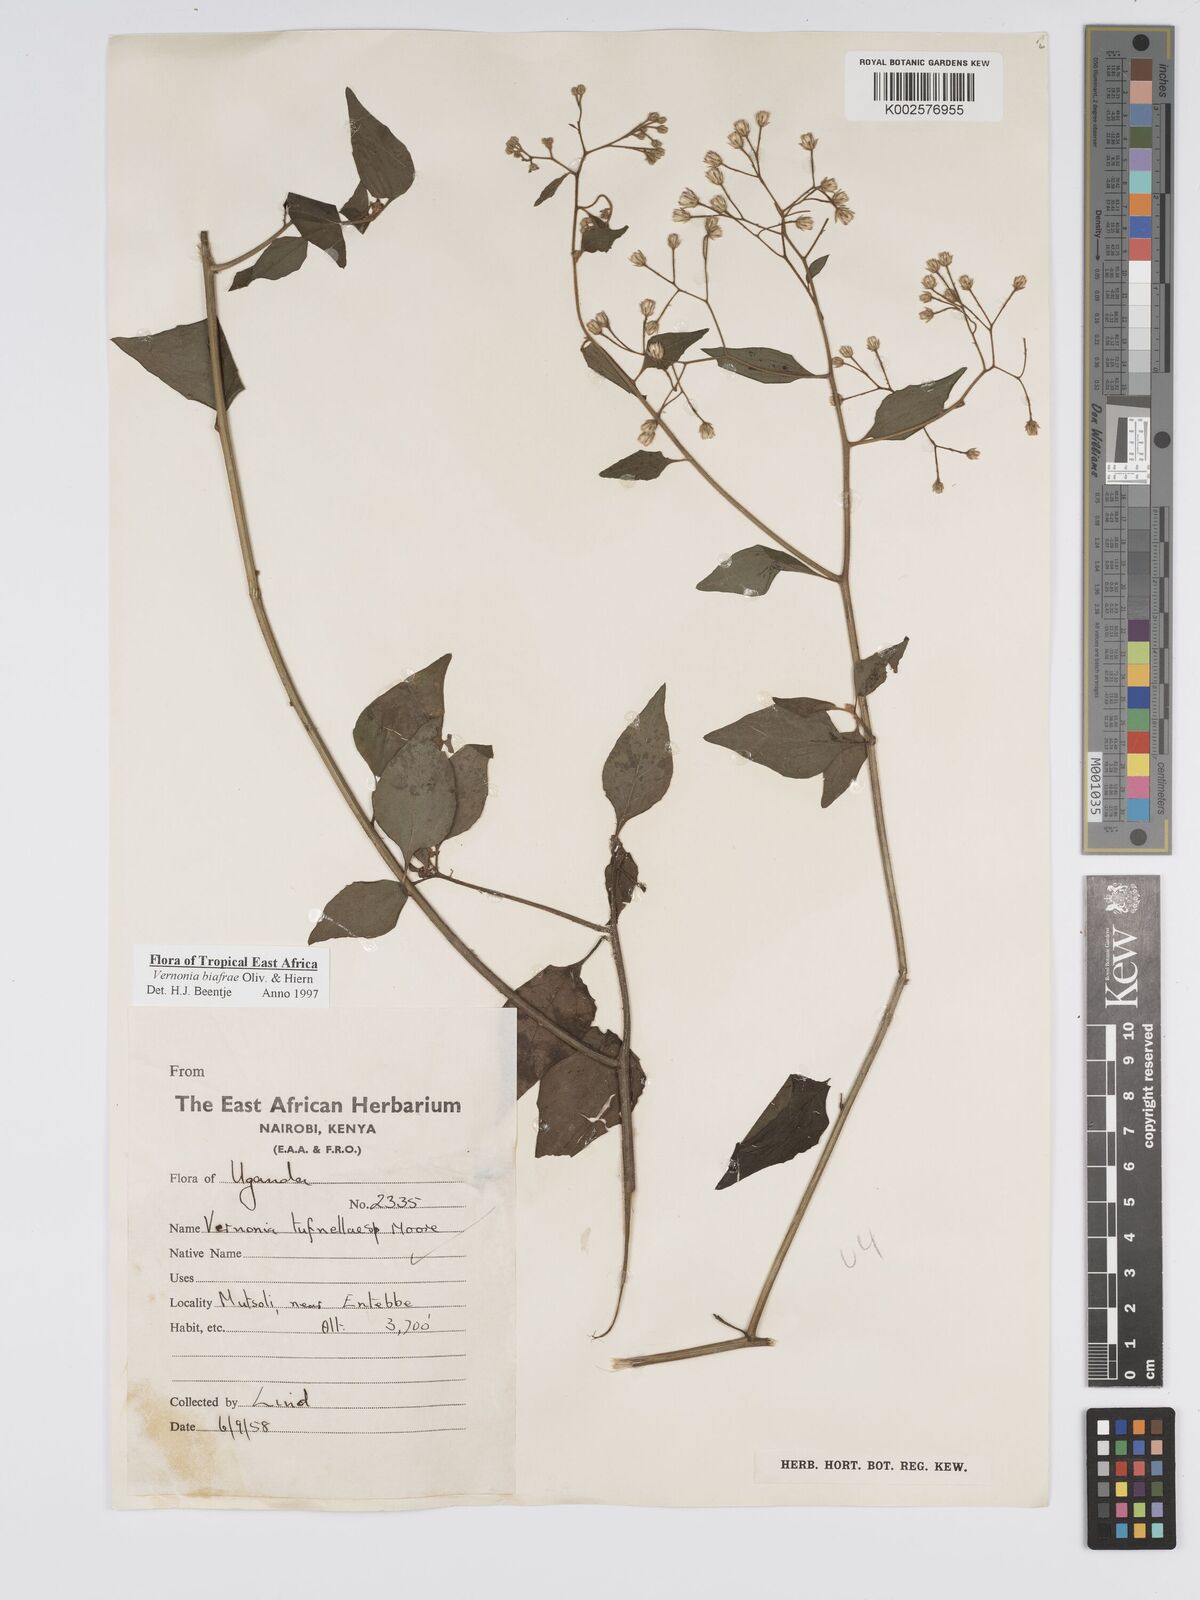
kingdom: Plantae
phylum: Tracheophyta
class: Magnoliopsida
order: Asterales
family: Asteraceae
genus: Distephanus
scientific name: Distephanus biafrae
